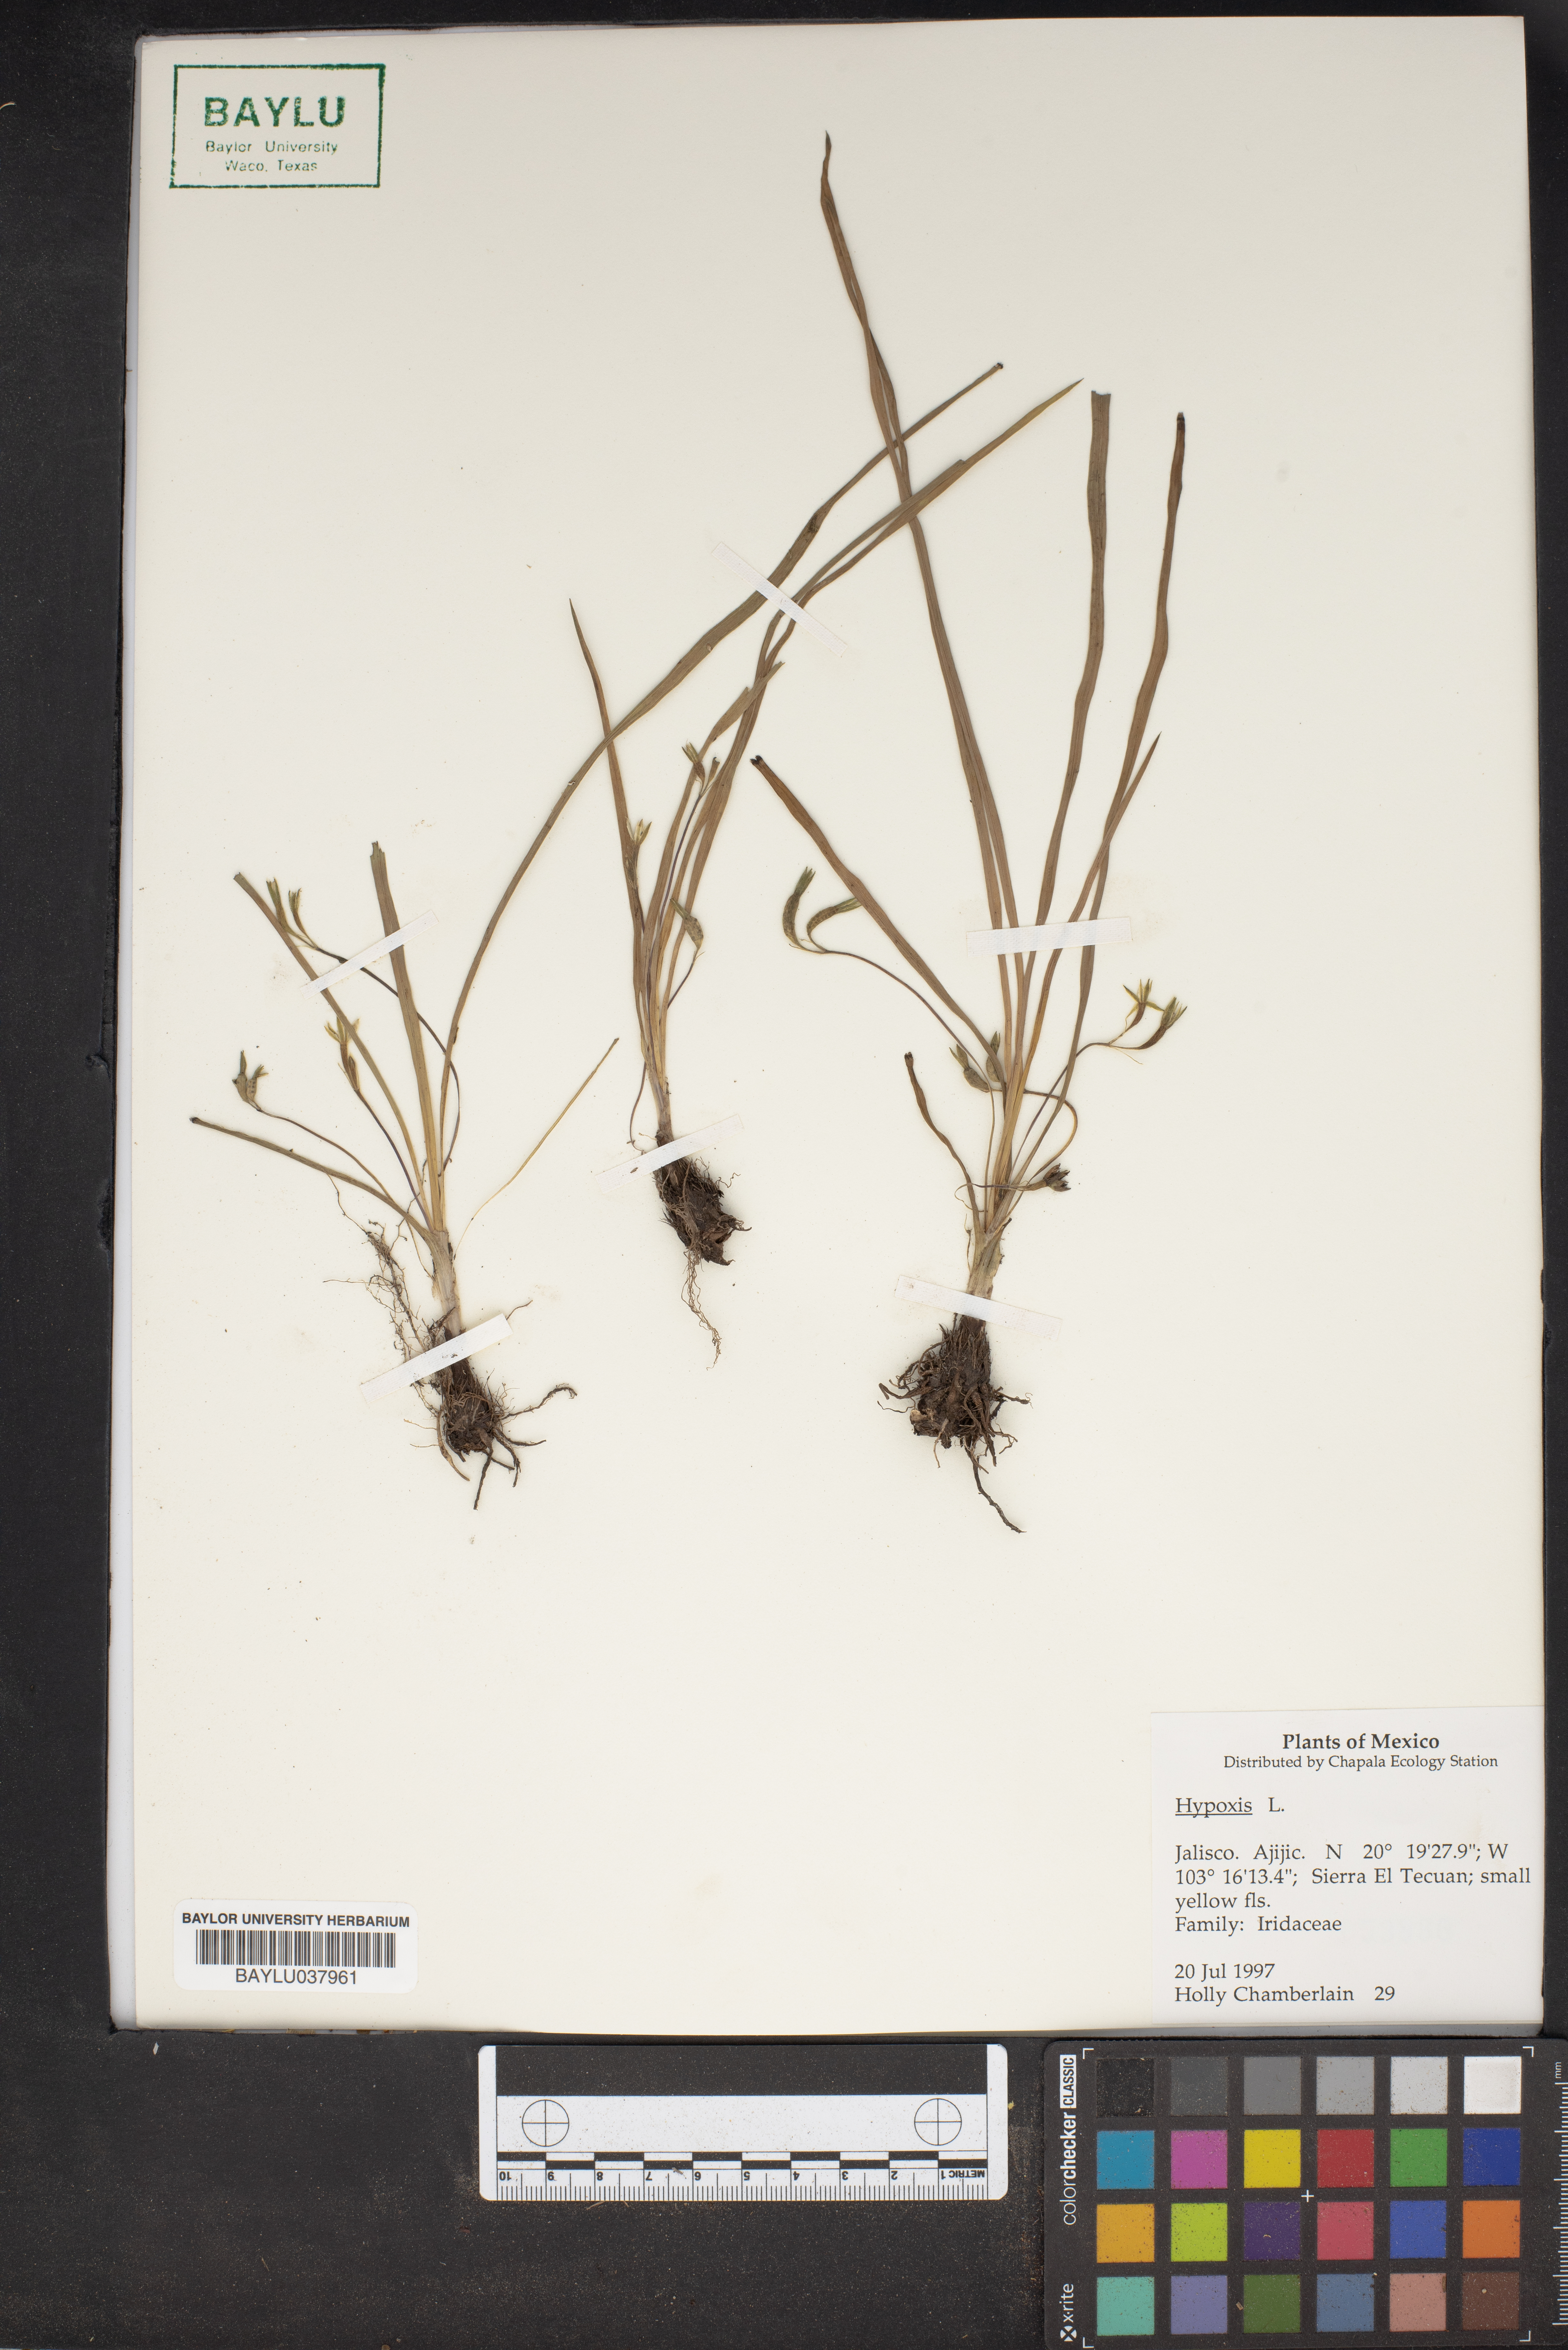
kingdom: Plantae
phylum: Tracheophyta
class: Liliopsida
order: Asparagales
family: Hypoxidaceae
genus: Hypoxis
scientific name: Hypoxis
